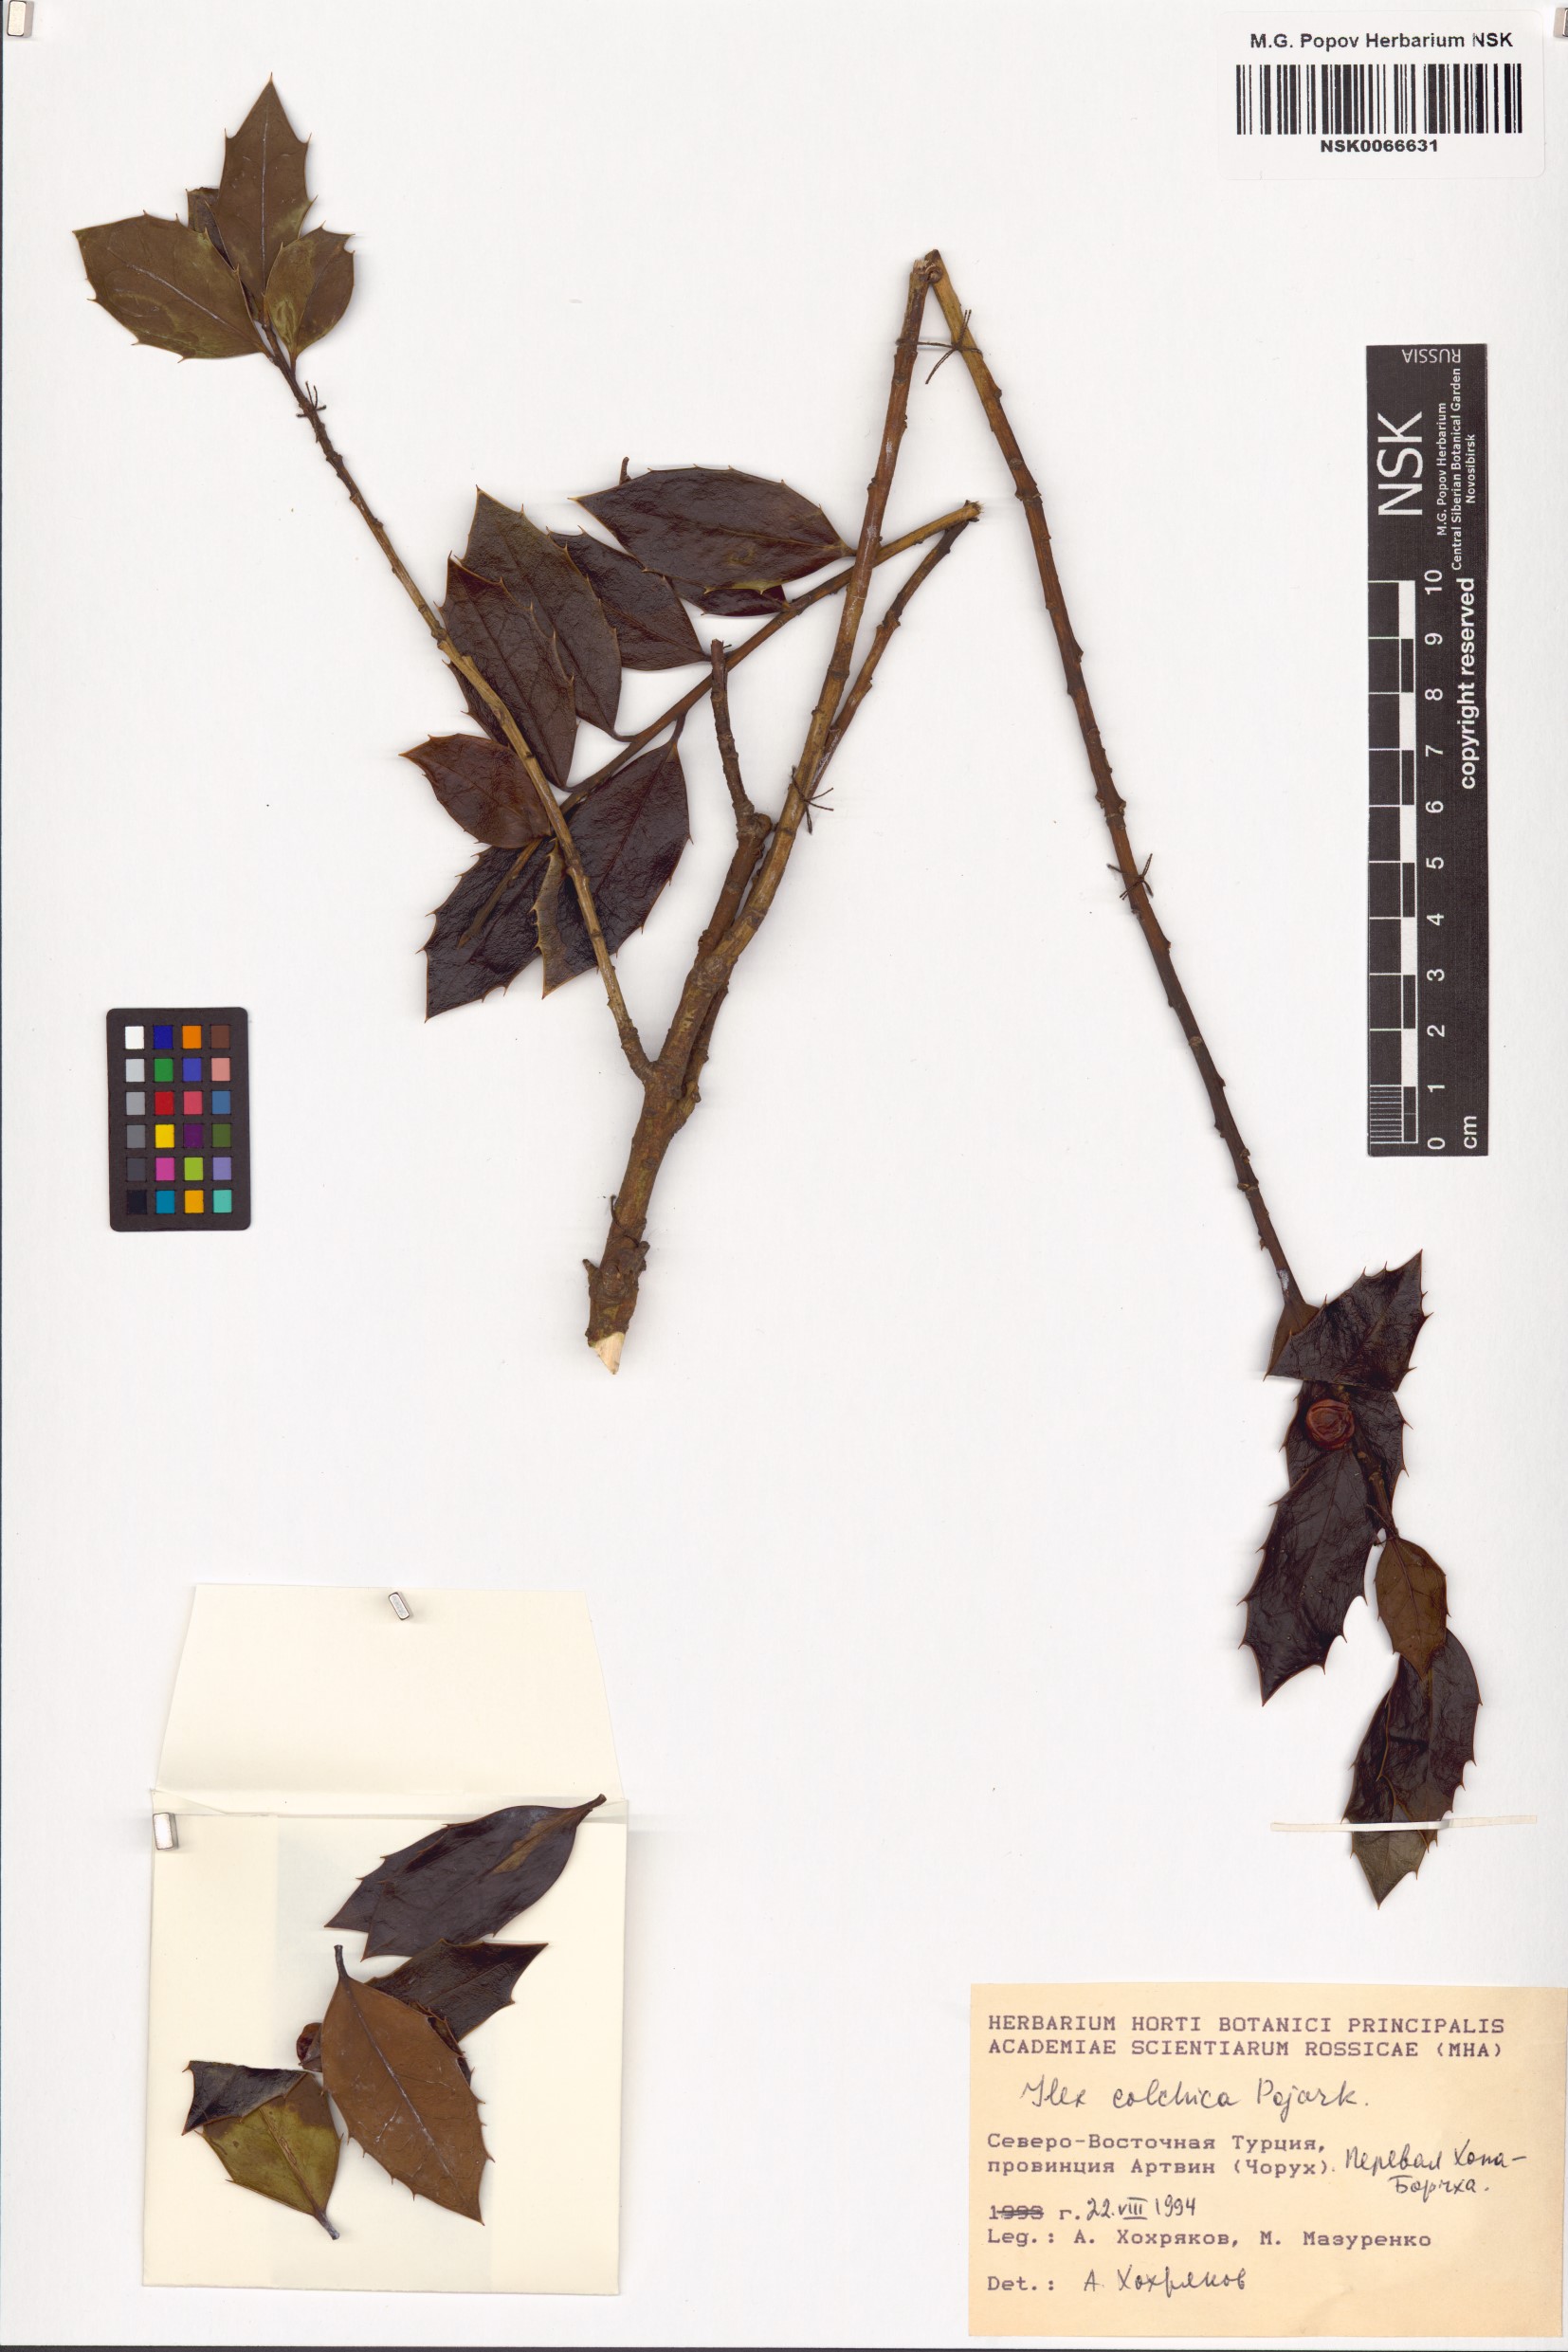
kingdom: Plantae
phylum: Tracheophyta
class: Magnoliopsida
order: Aquifoliales
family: Aquifoliaceae
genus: Ilex
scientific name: Ilex colchica
